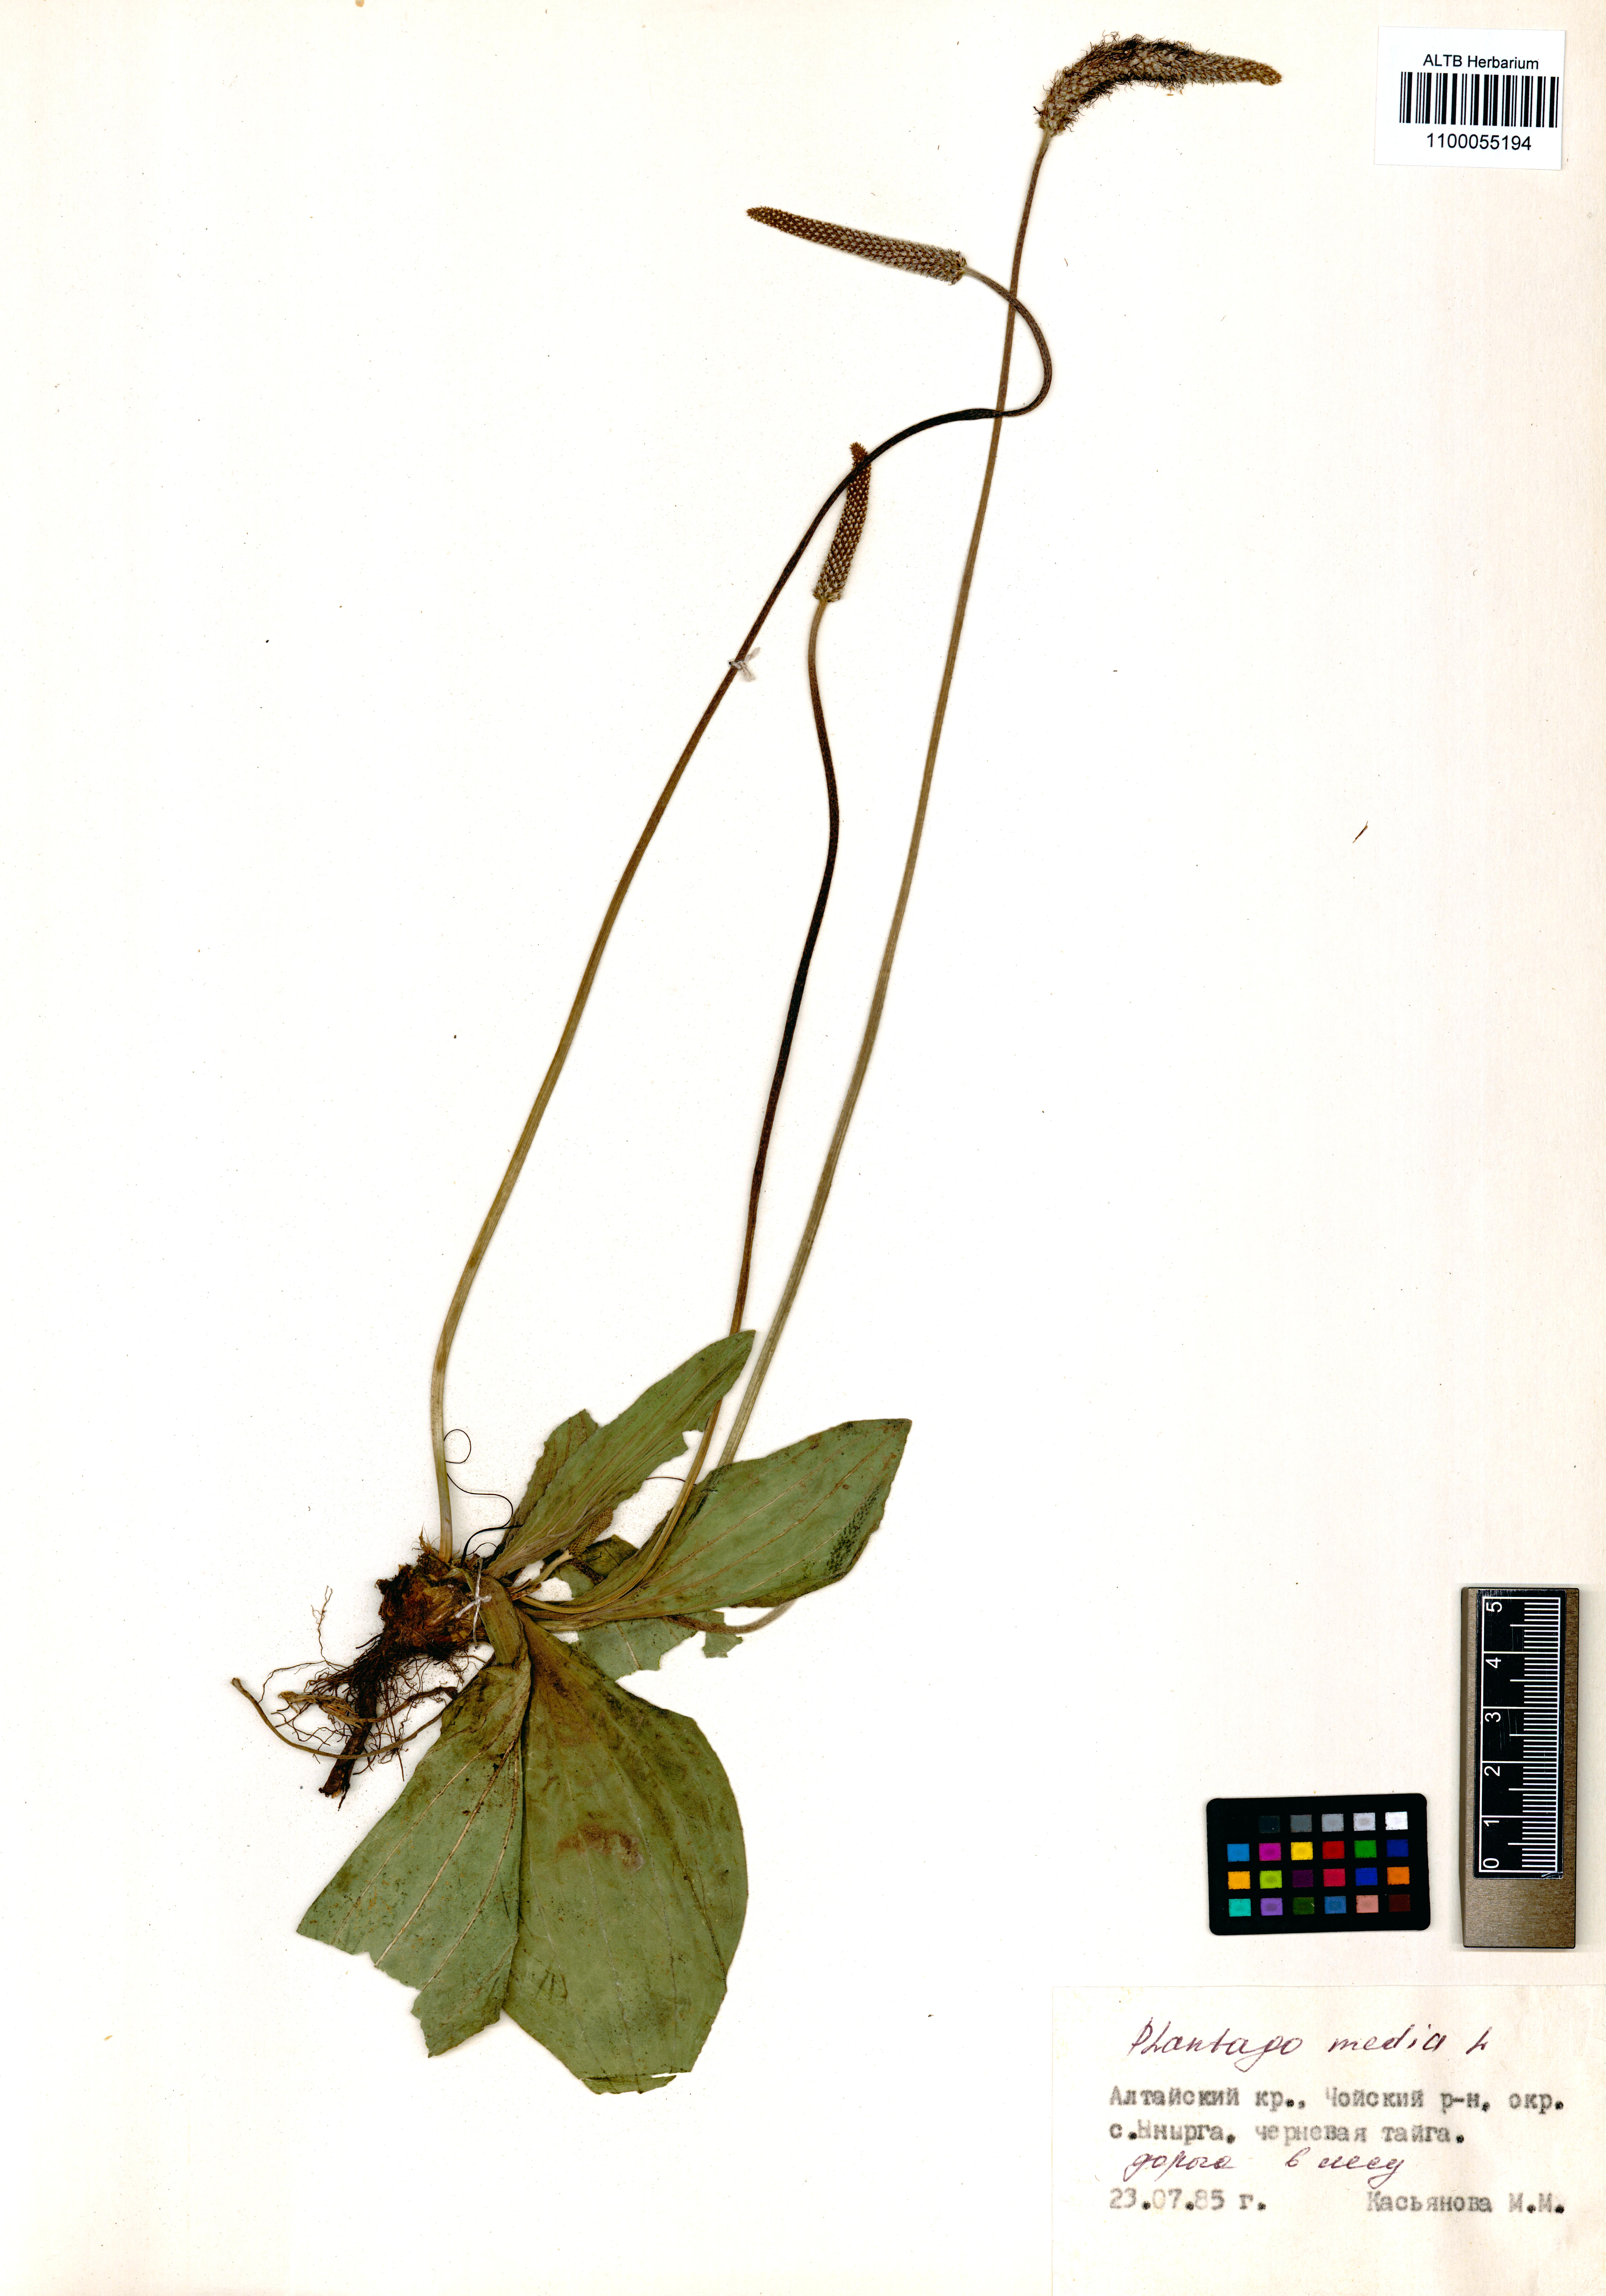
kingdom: Plantae
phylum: Tracheophyta
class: Magnoliopsida
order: Lamiales
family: Plantaginaceae
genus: Plantago
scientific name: Plantago media
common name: Hoary plantain
